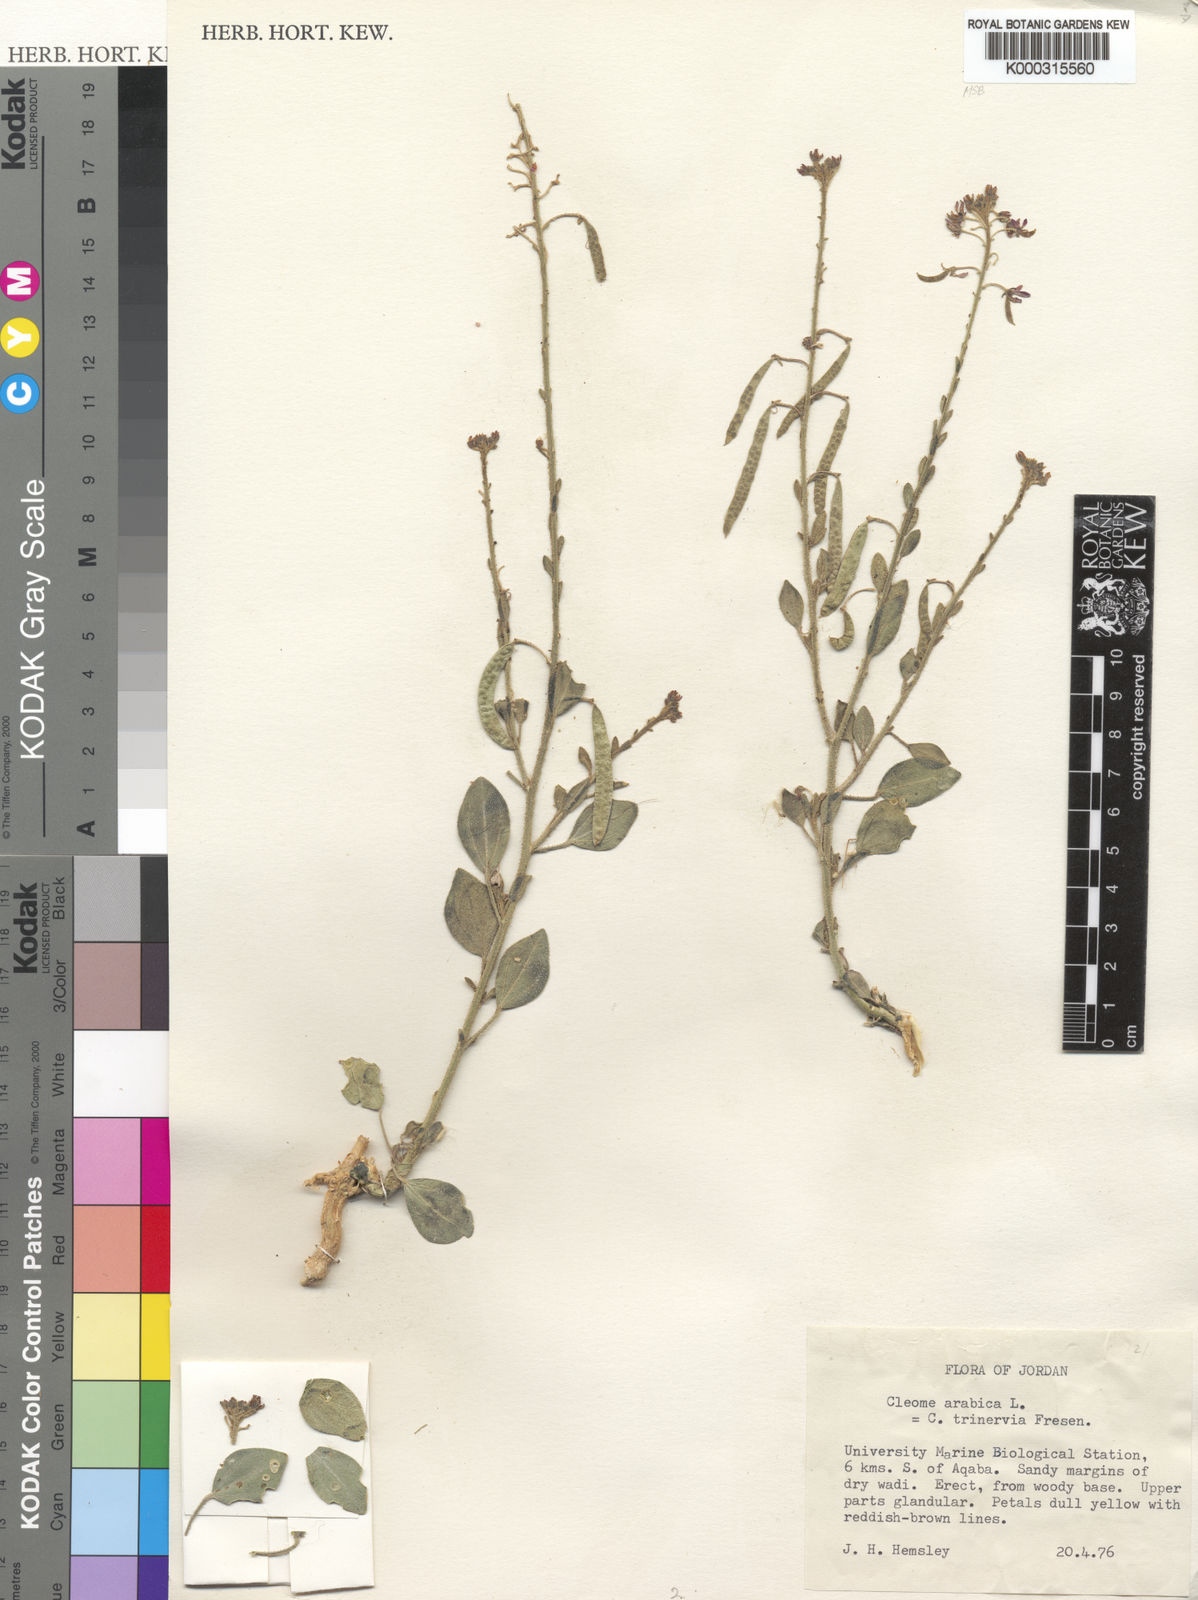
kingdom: Plantae
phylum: Tracheophyta
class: Magnoliopsida
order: Brassicales
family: Cleomaceae
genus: Cleome
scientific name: Cleome arabica
